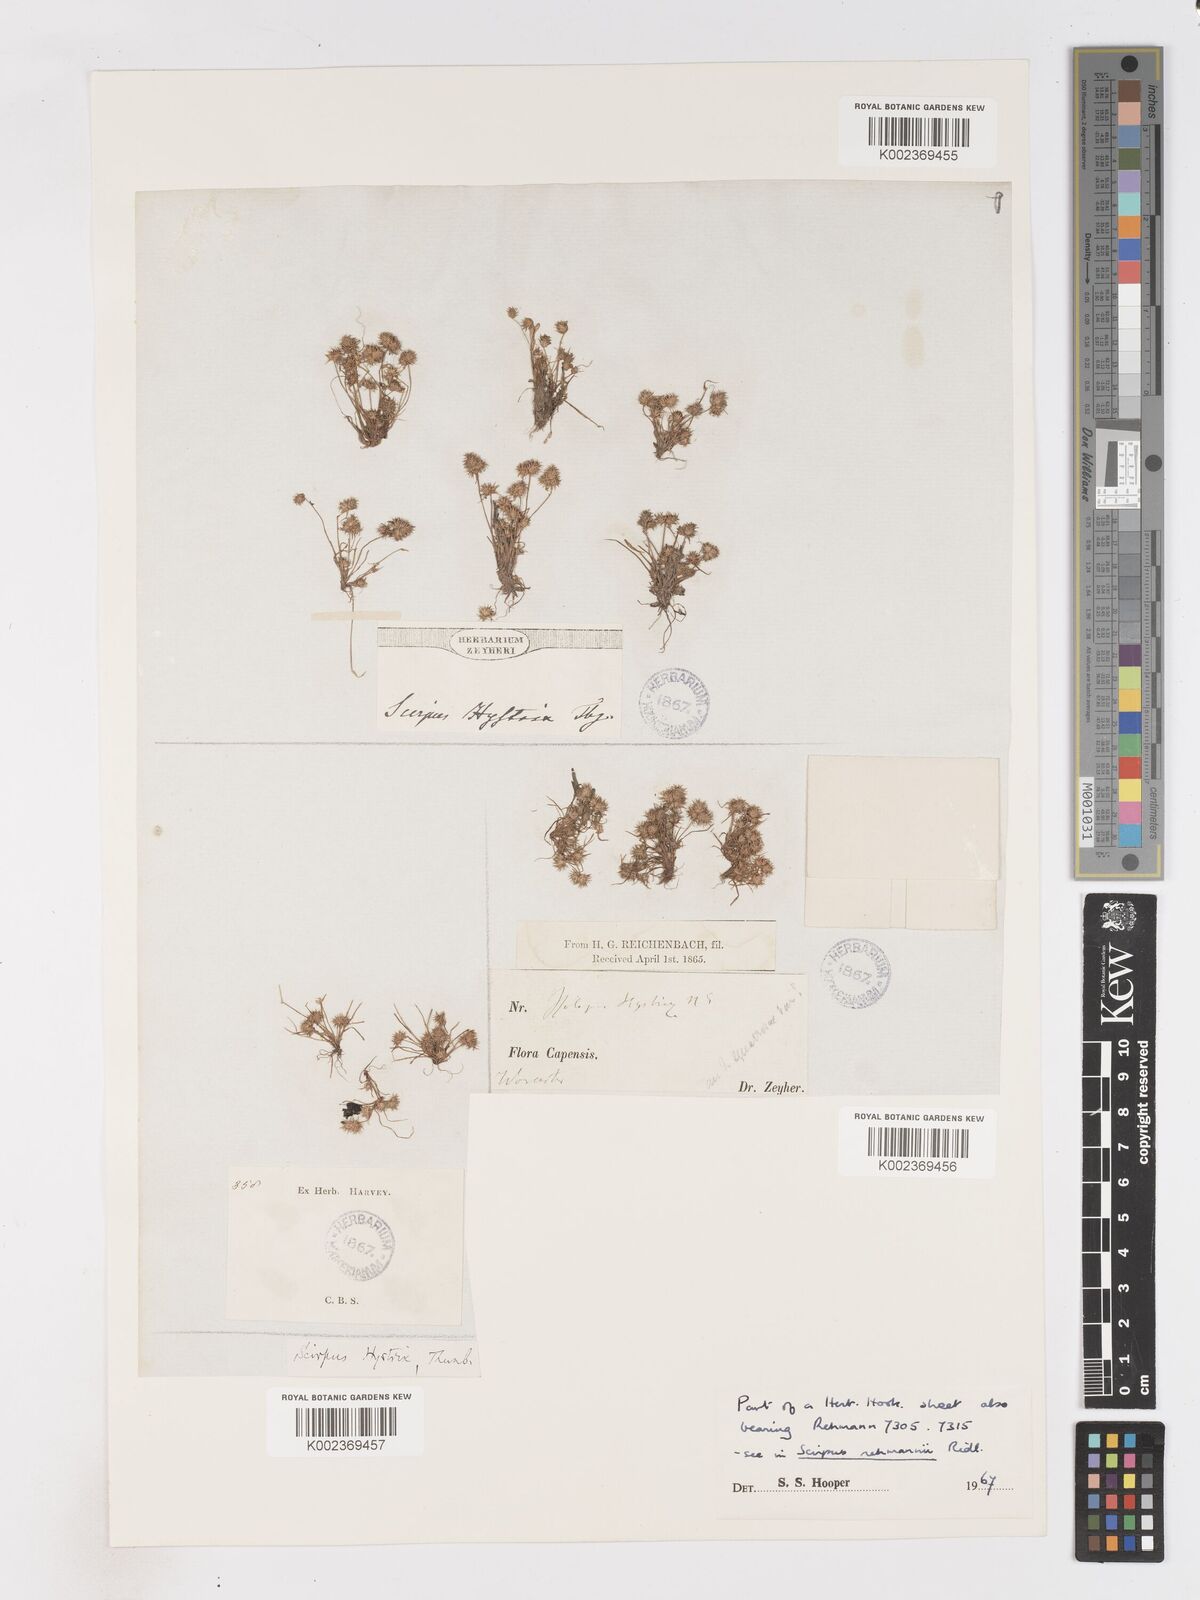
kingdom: Plantae
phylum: Tracheophyta
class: Liliopsida
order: Poales
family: Cyperaceae
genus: Isolepis
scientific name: Isolepis hystrix
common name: Bottlebrush bulrush
